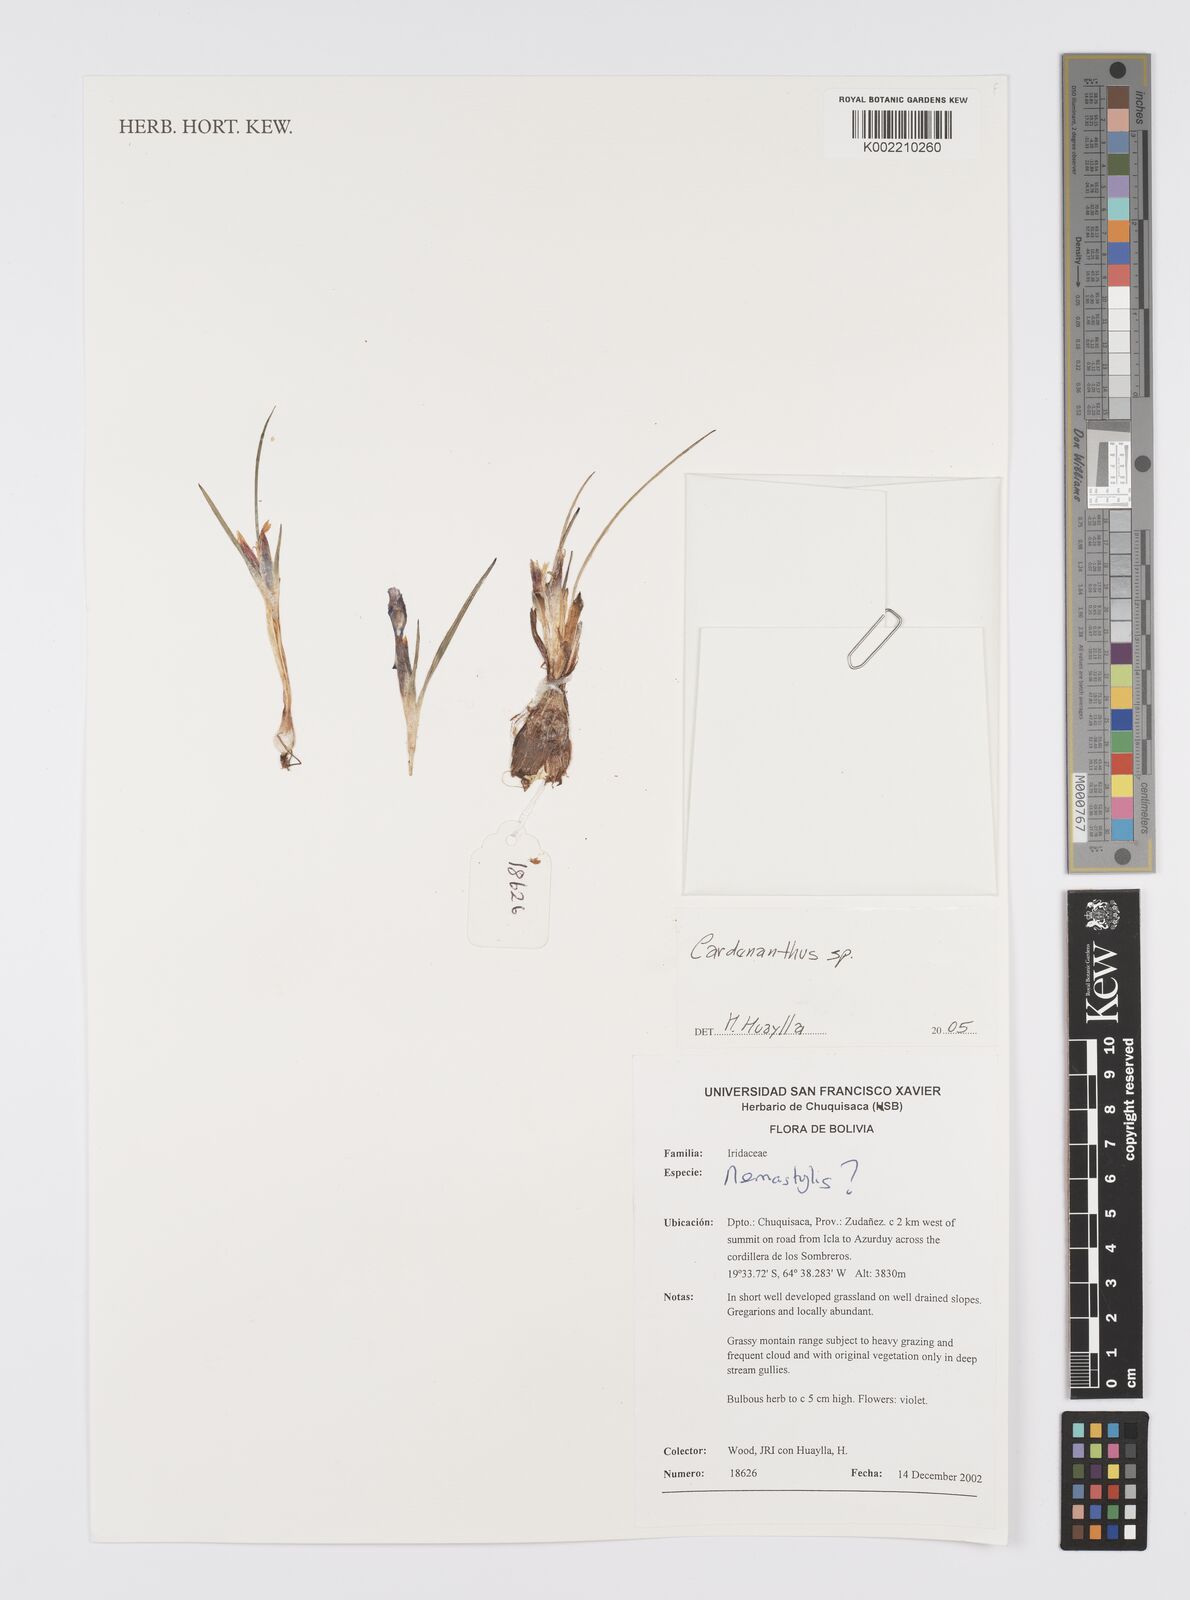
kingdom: Plantae
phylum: Tracheophyta
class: Liliopsida
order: Asparagales
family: Iridaceae
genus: Mastigostyla
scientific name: Mastigostyla
